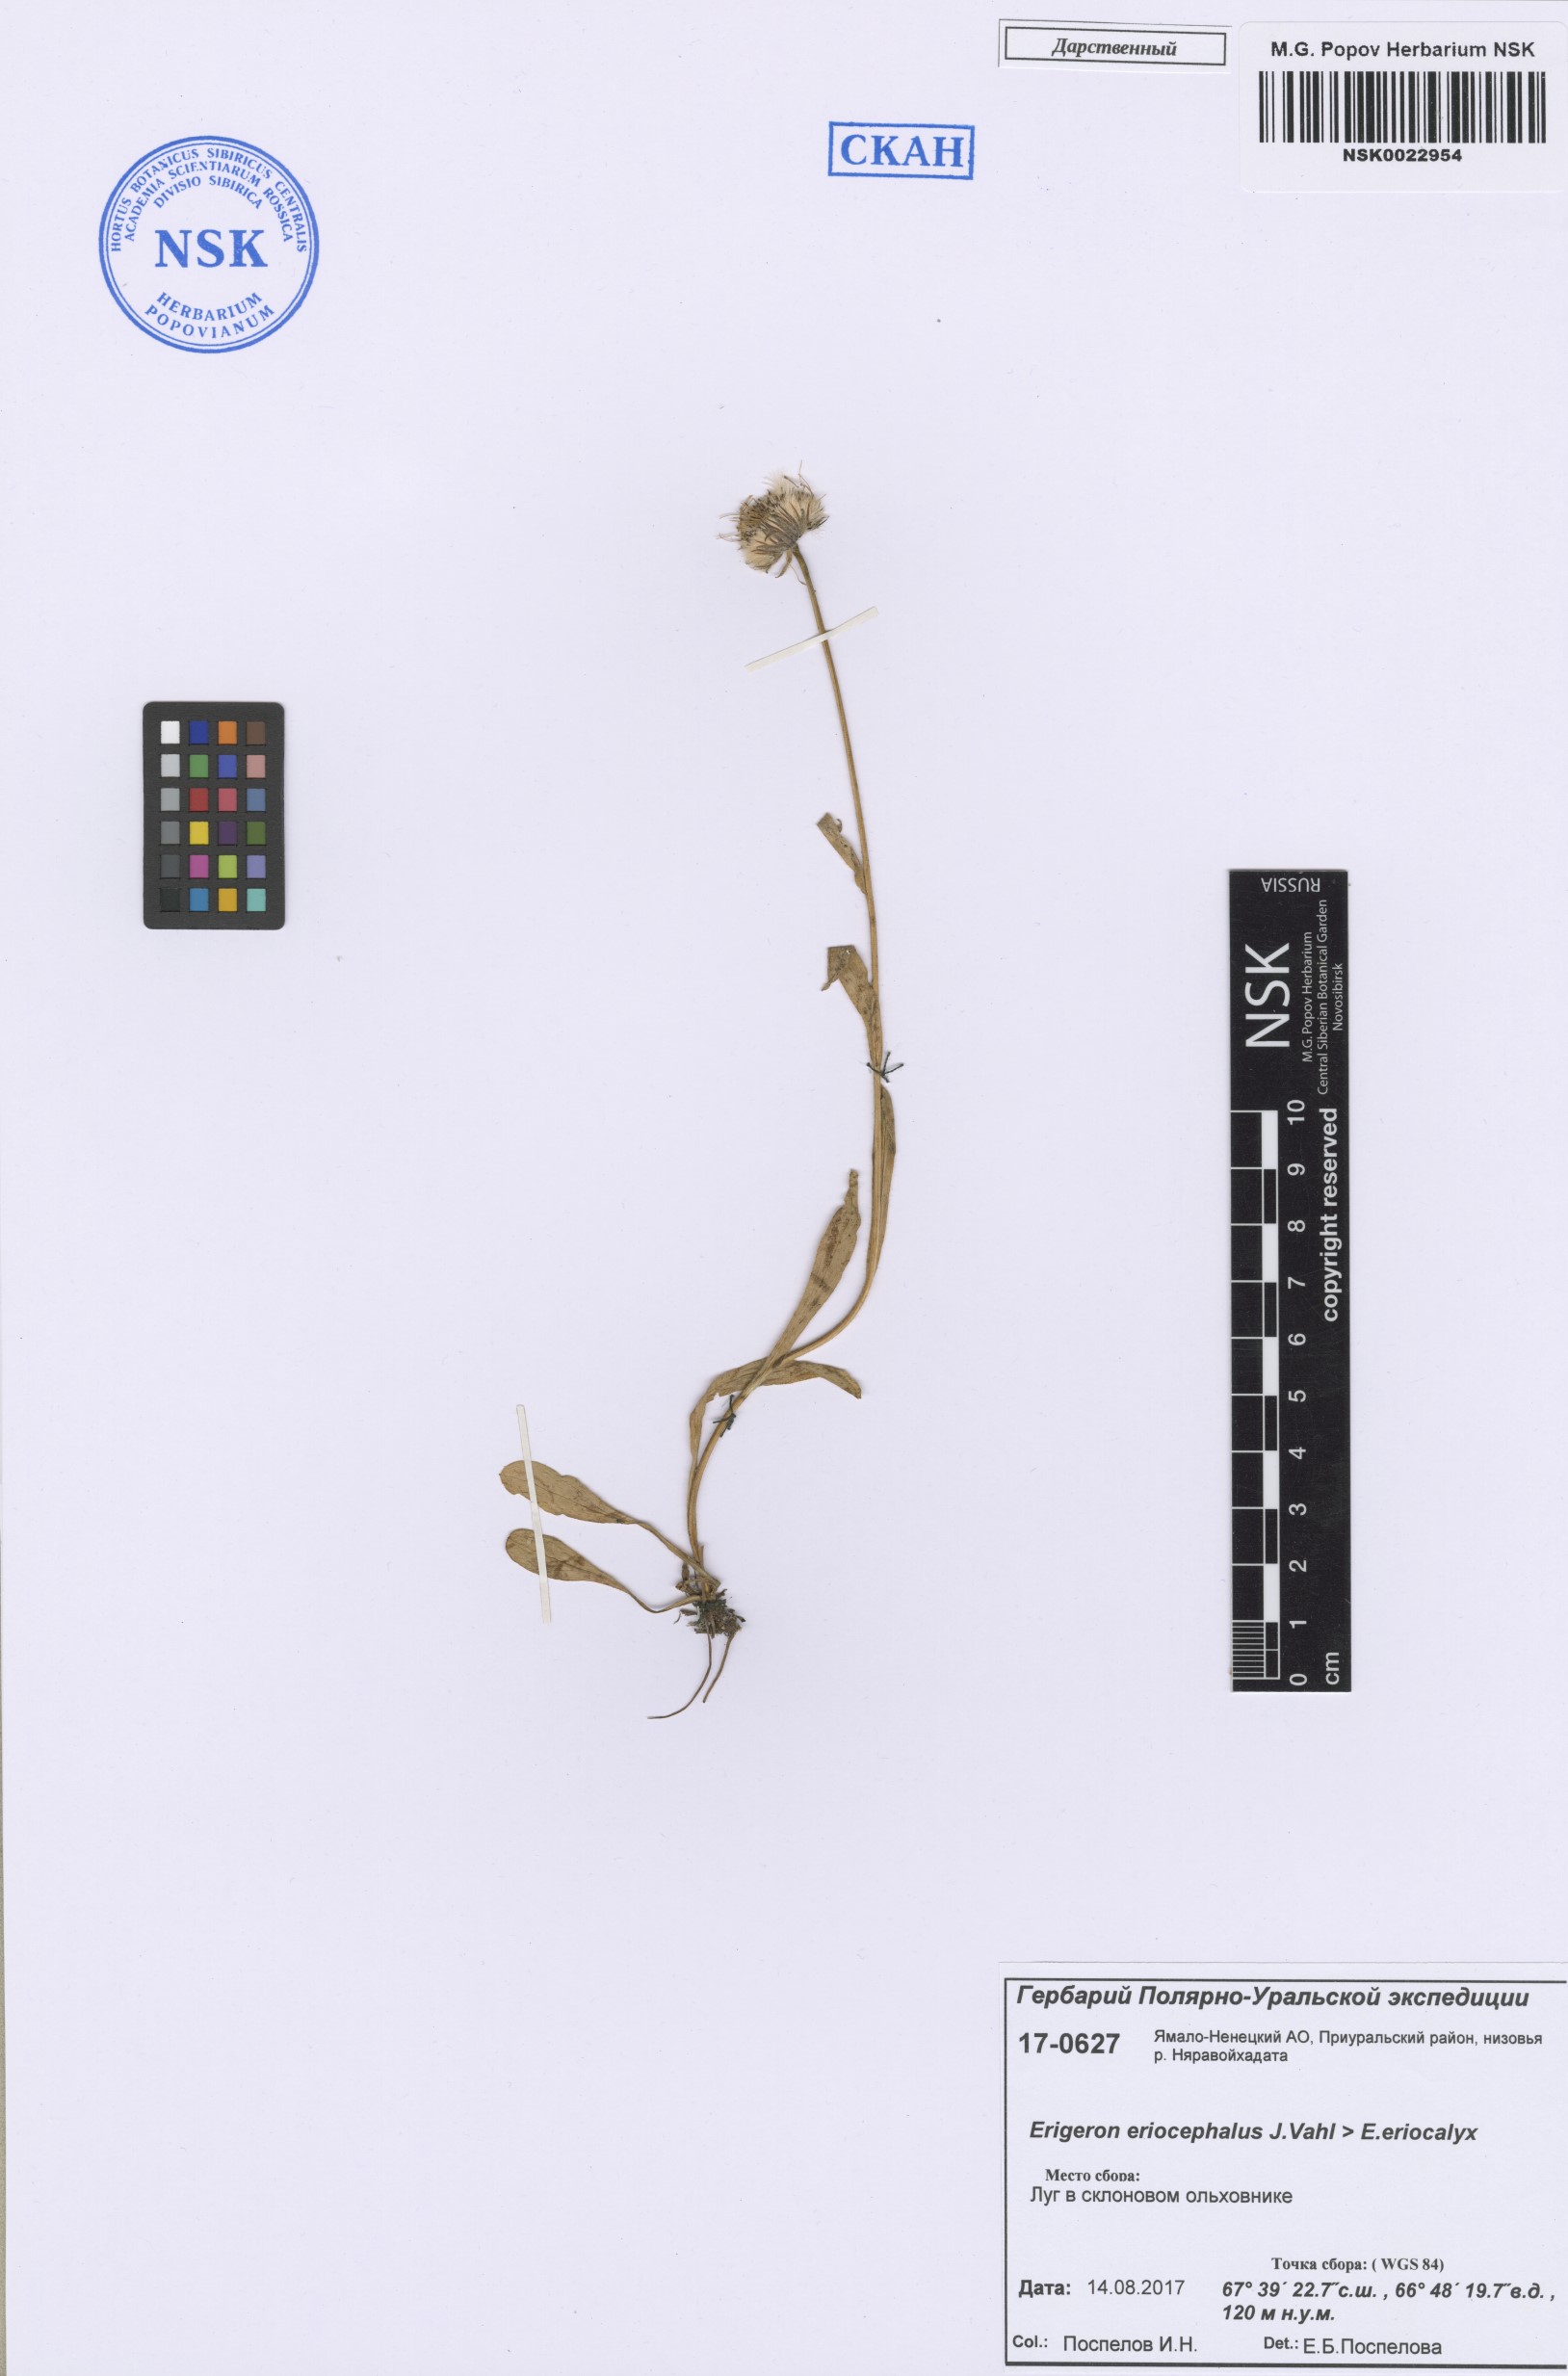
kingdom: Plantae
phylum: Tracheophyta
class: Magnoliopsida
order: Asterales
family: Asteraceae
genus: Erigeron
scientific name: Erigeron eriocephalus
